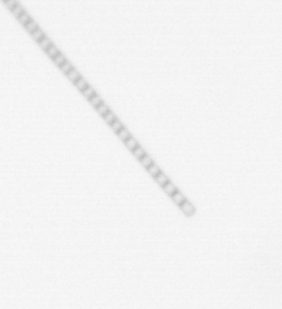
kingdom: Chromista
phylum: Ochrophyta
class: Bacillariophyceae
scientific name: Bacillariophyceae
